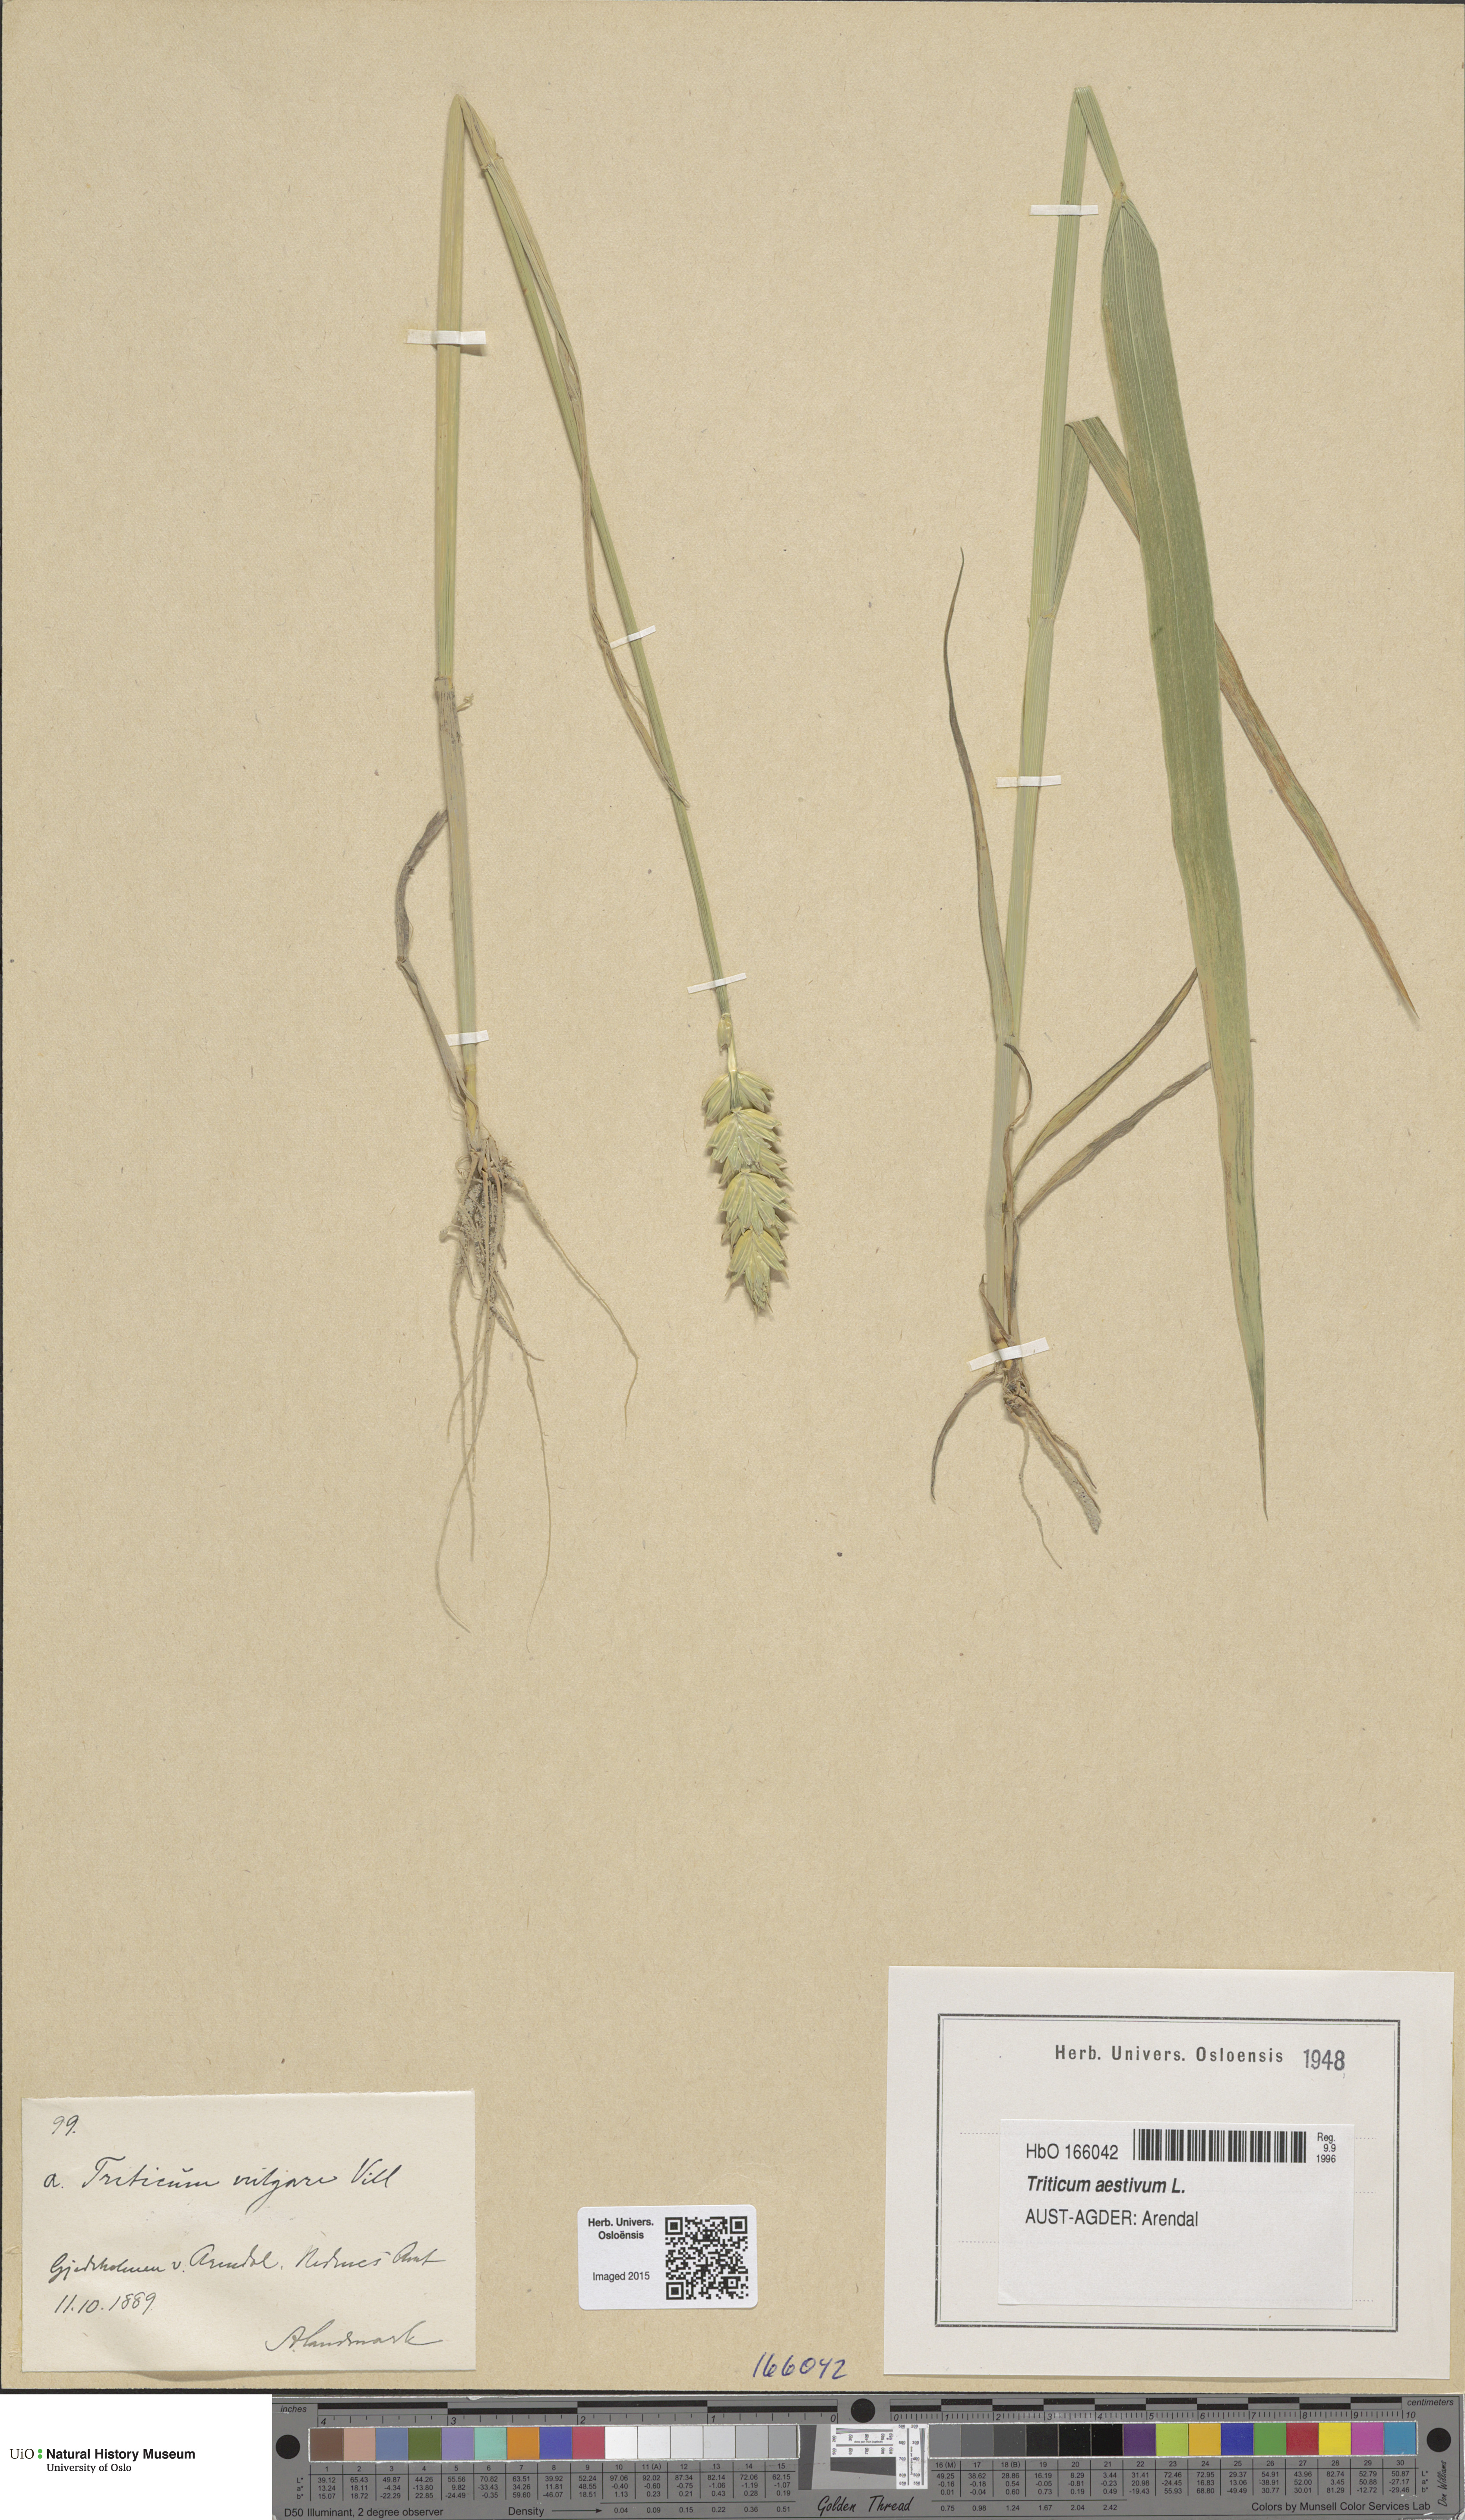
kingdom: Plantae
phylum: Tracheophyta
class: Liliopsida
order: Poales
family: Poaceae
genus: Triticum
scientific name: Triticum aestivum
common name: Common wheat
